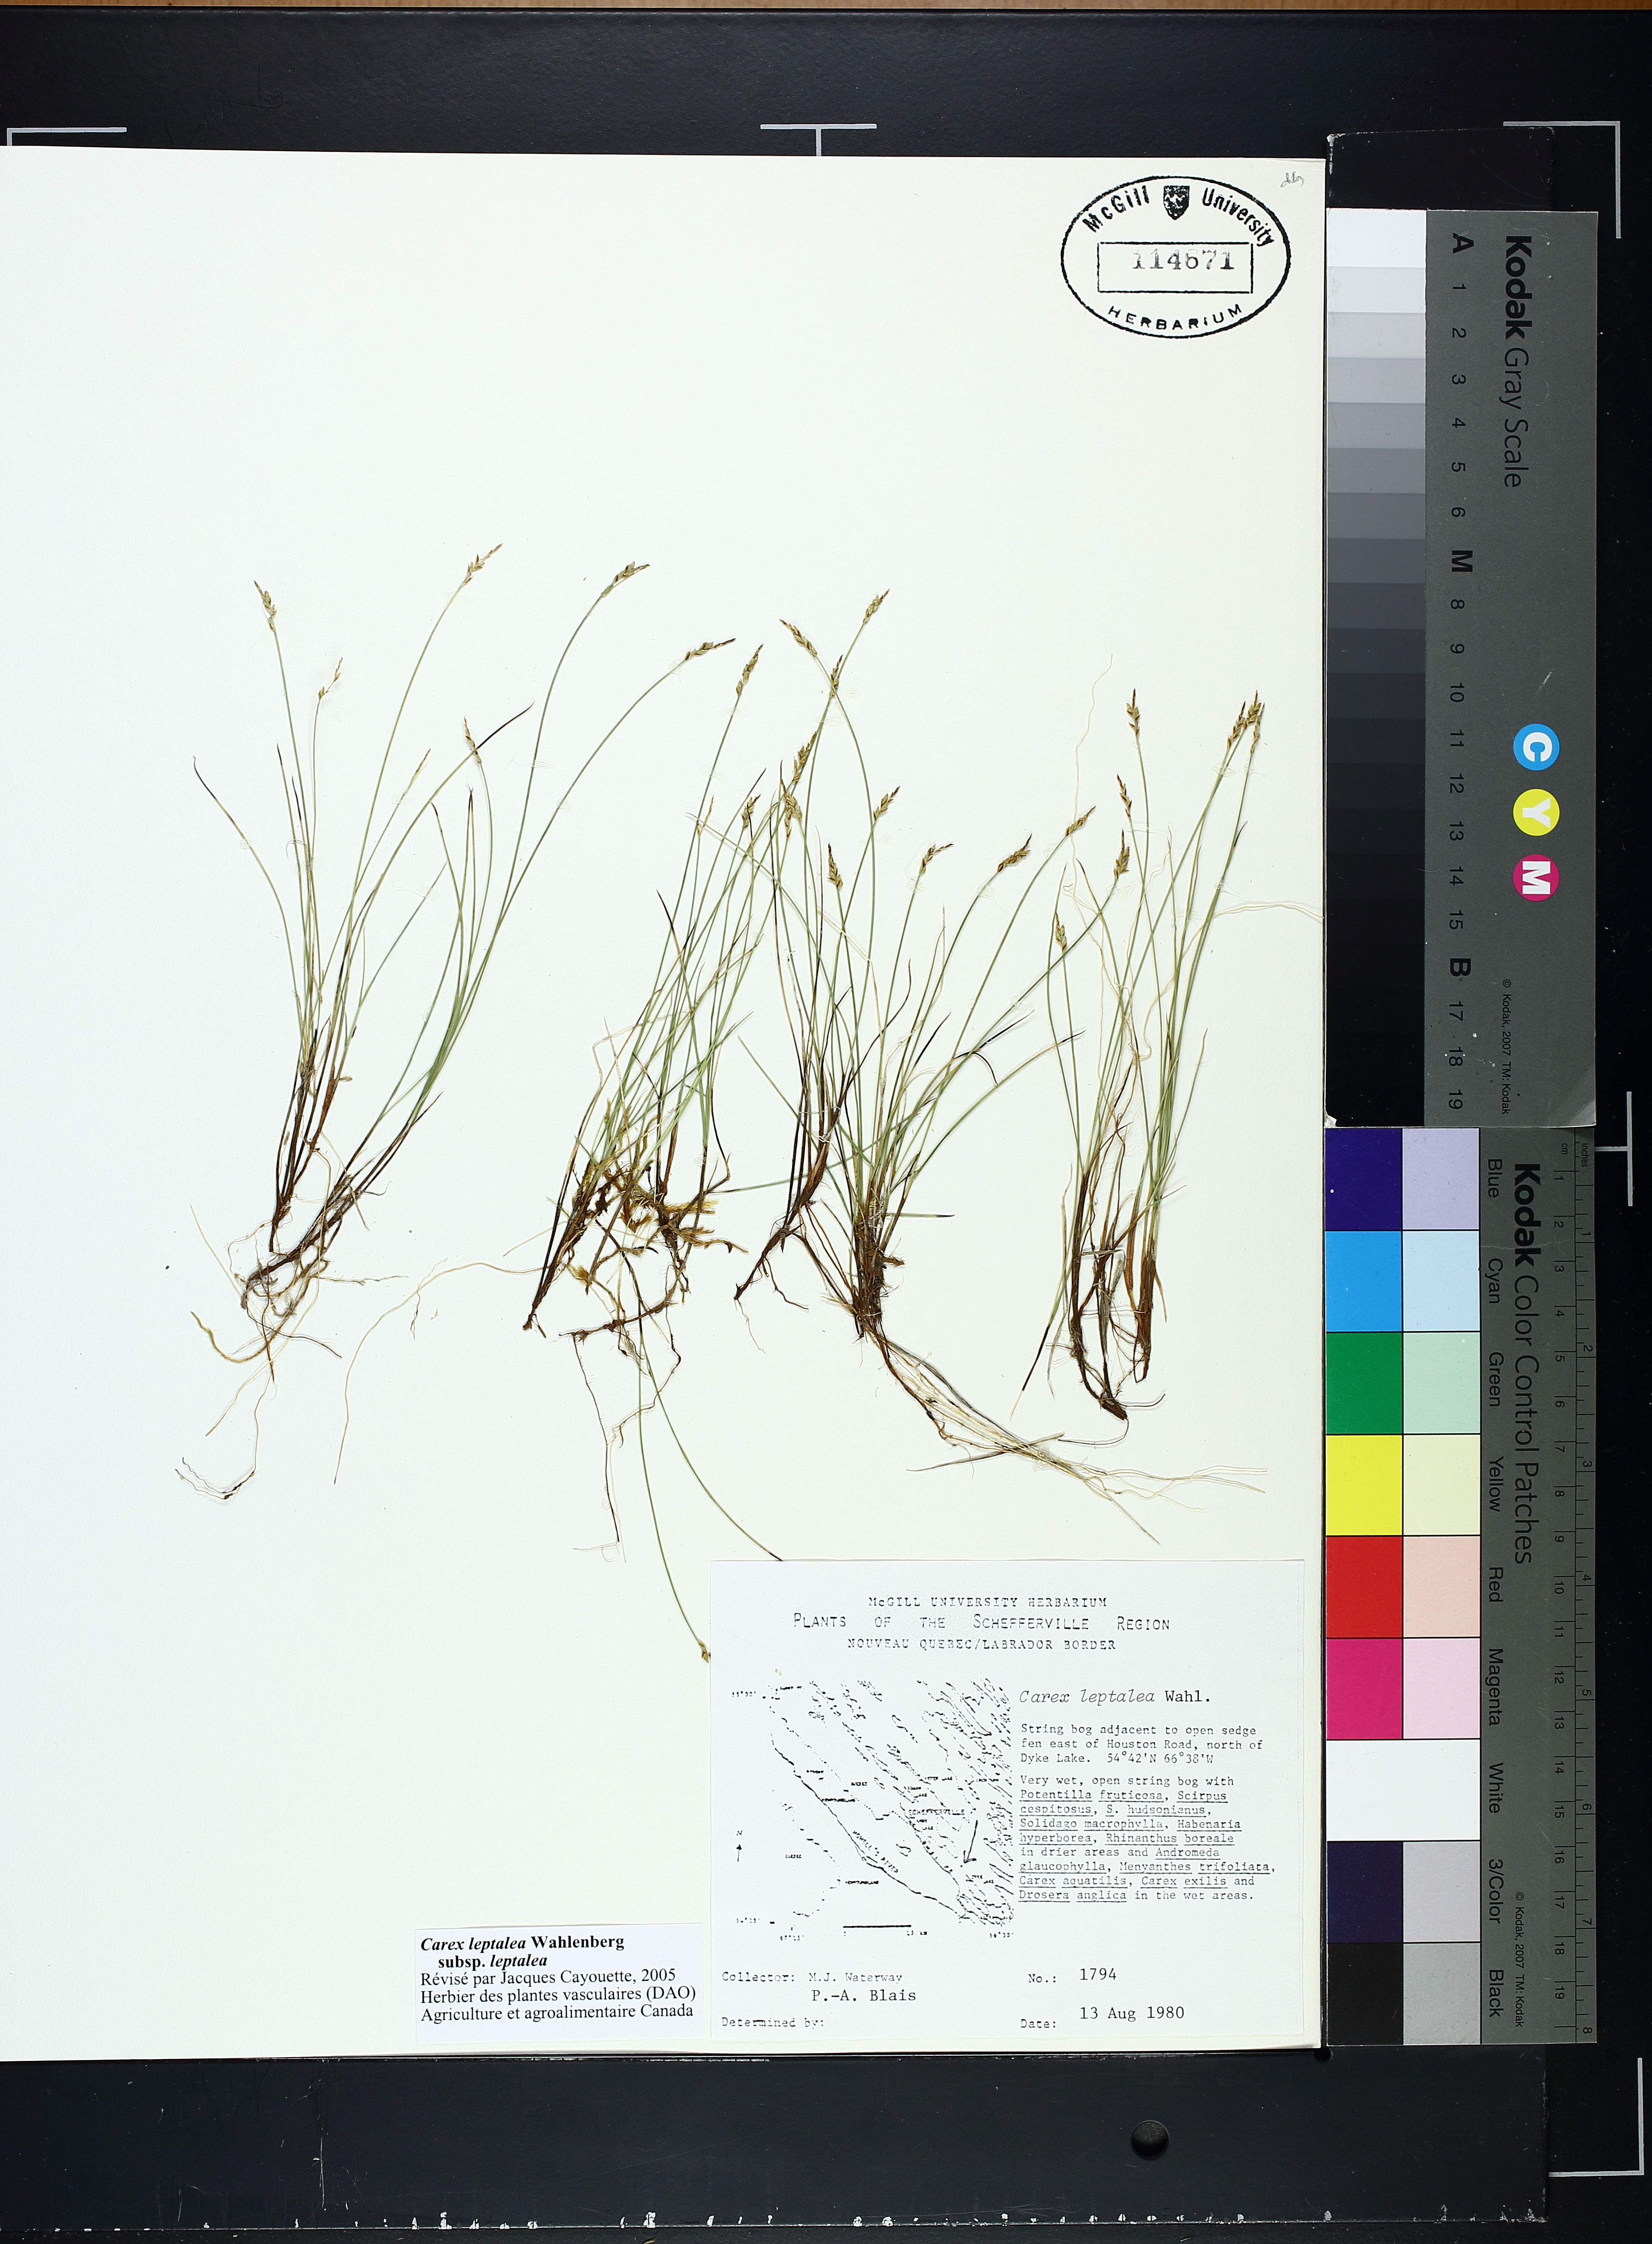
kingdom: Plantae
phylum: Tracheophyta
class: Liliopsida
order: Poales
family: Cyperaceae
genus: Carex
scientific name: Carex leptalea
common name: Bristly-stalked sedge
